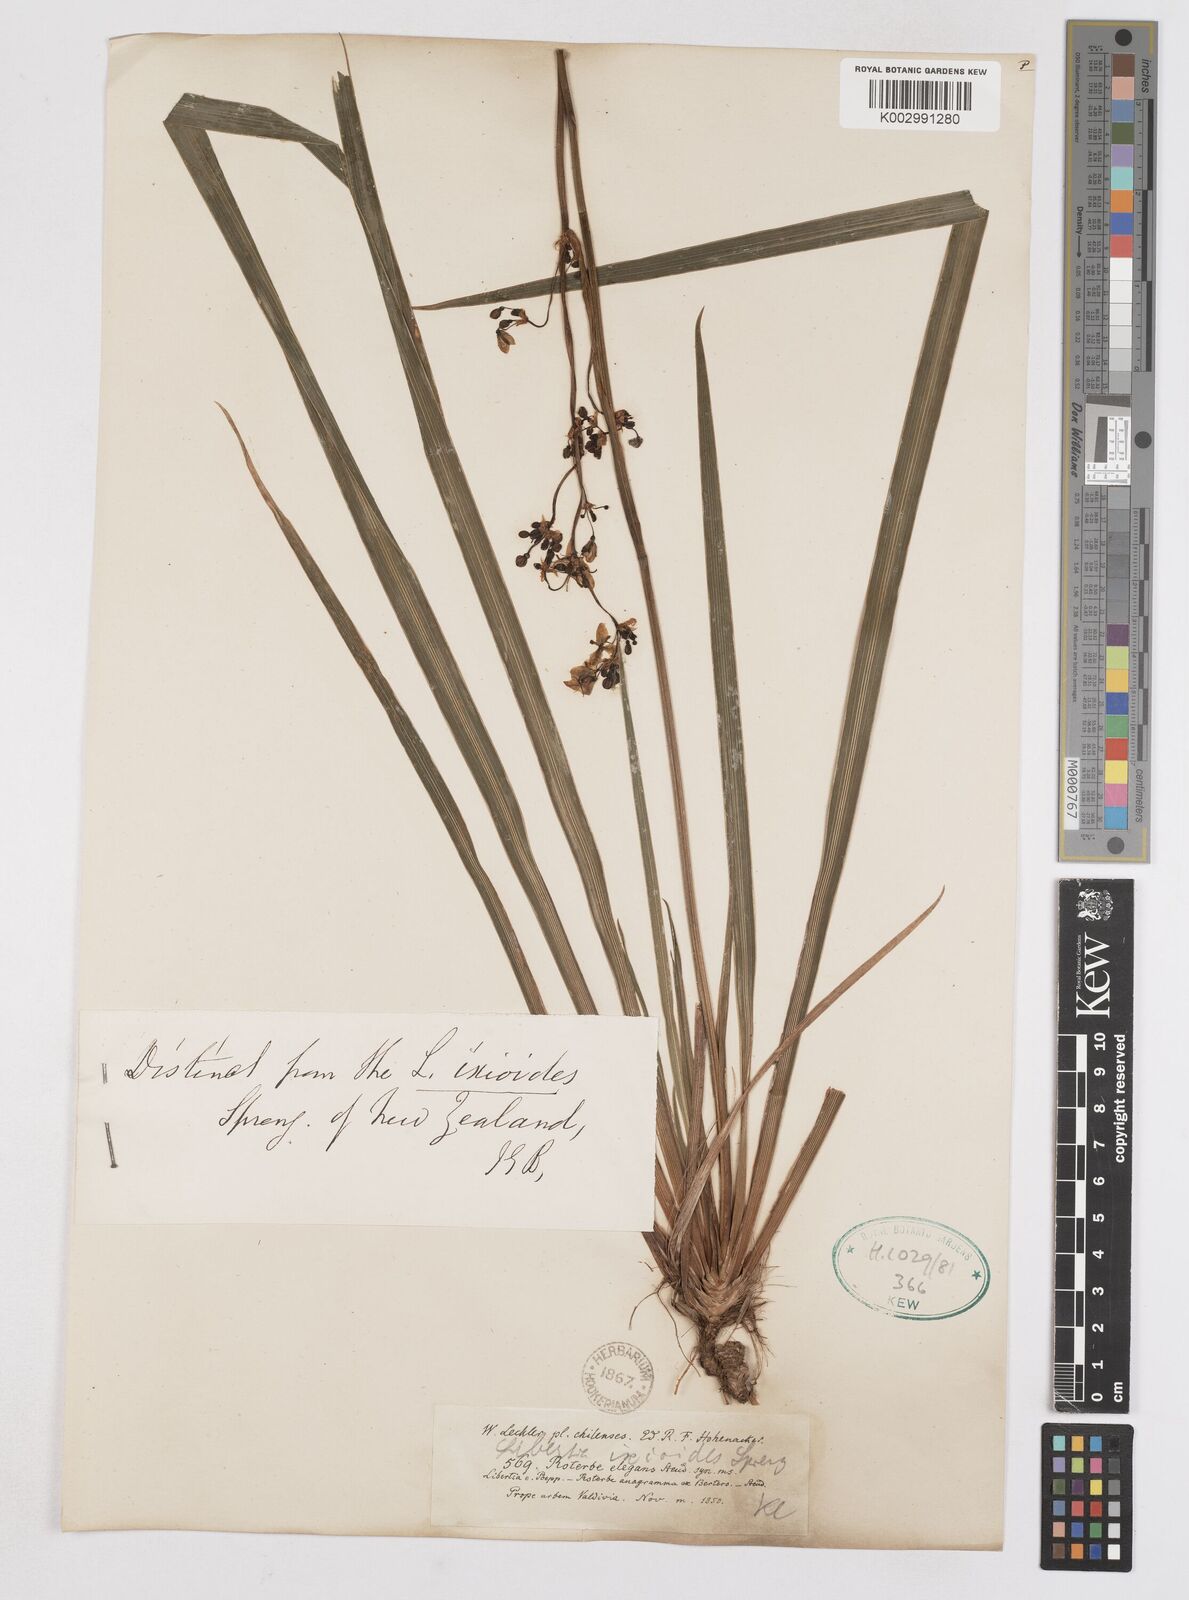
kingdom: Plantae
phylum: Tracheophyta
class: Liliopsida
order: Asparagales
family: Iridaceae
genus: Libertia
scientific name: Libertia ixioides
